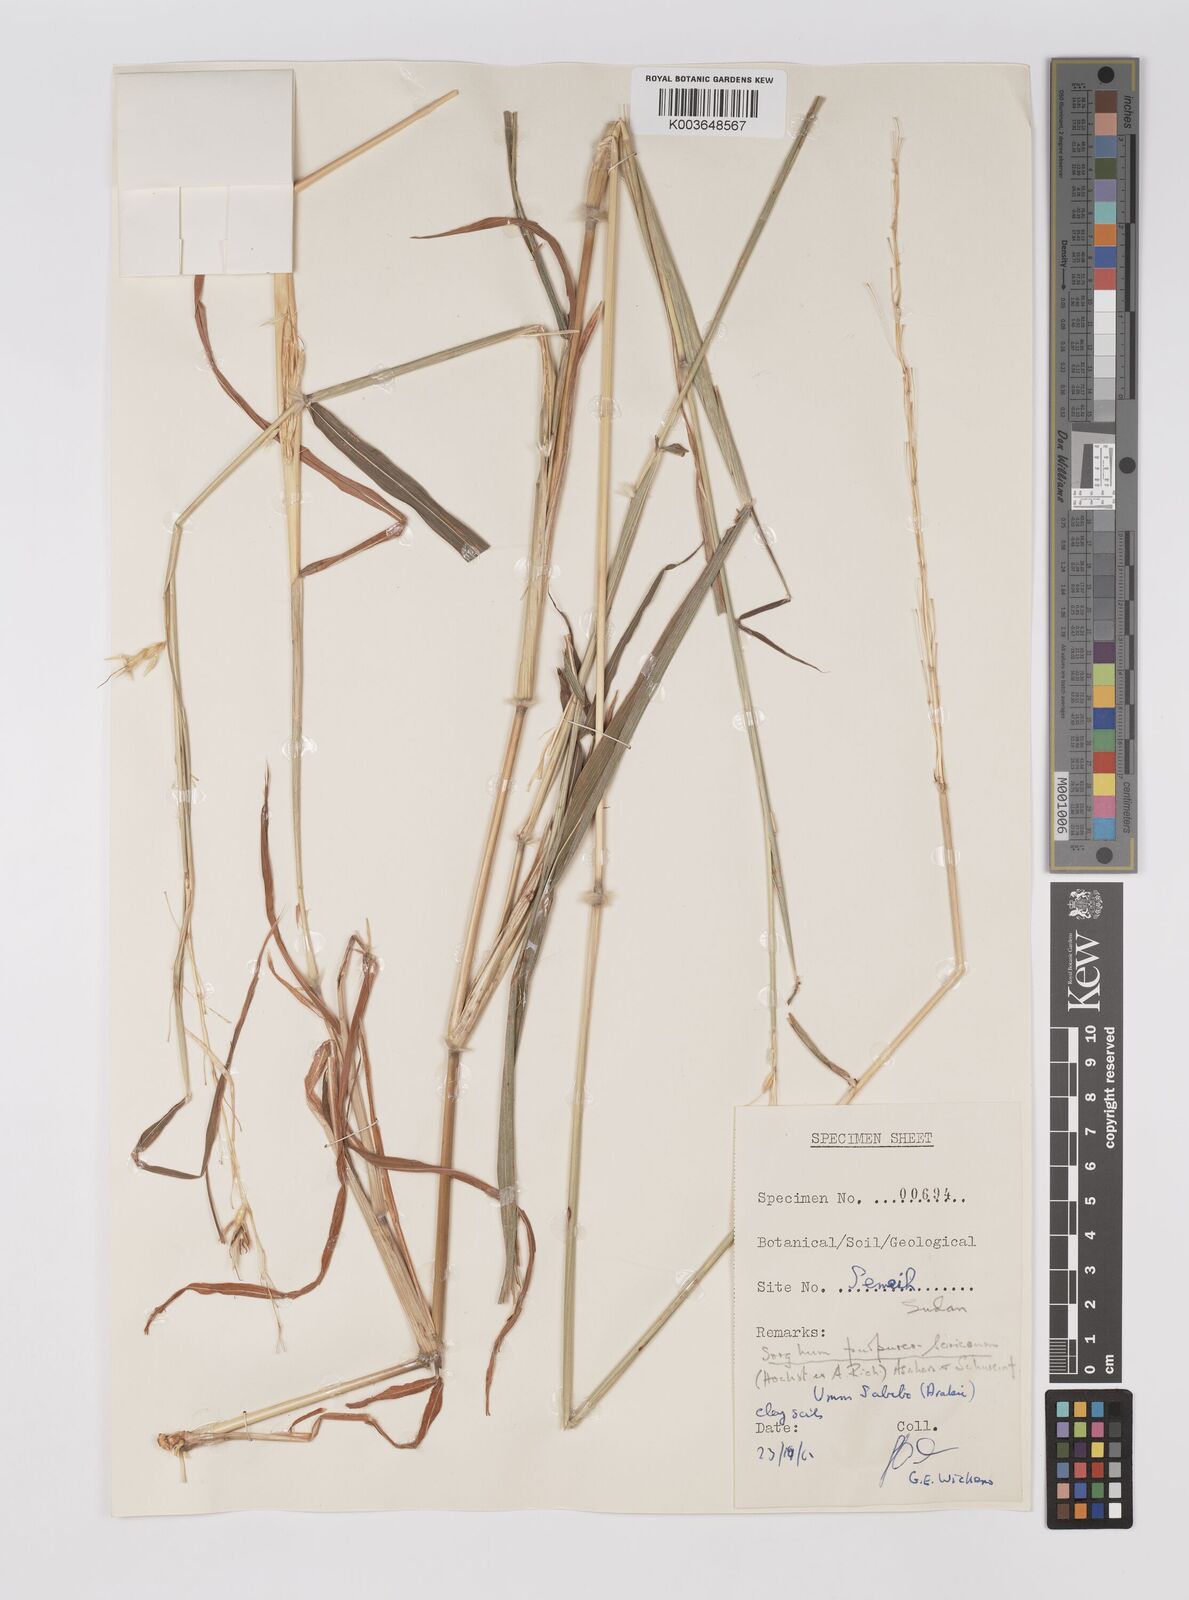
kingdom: Plantae
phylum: Tracheophyta
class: Liliopsida
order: Poales
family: Poaceae
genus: Sarga
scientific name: Sarga purpureosericea
